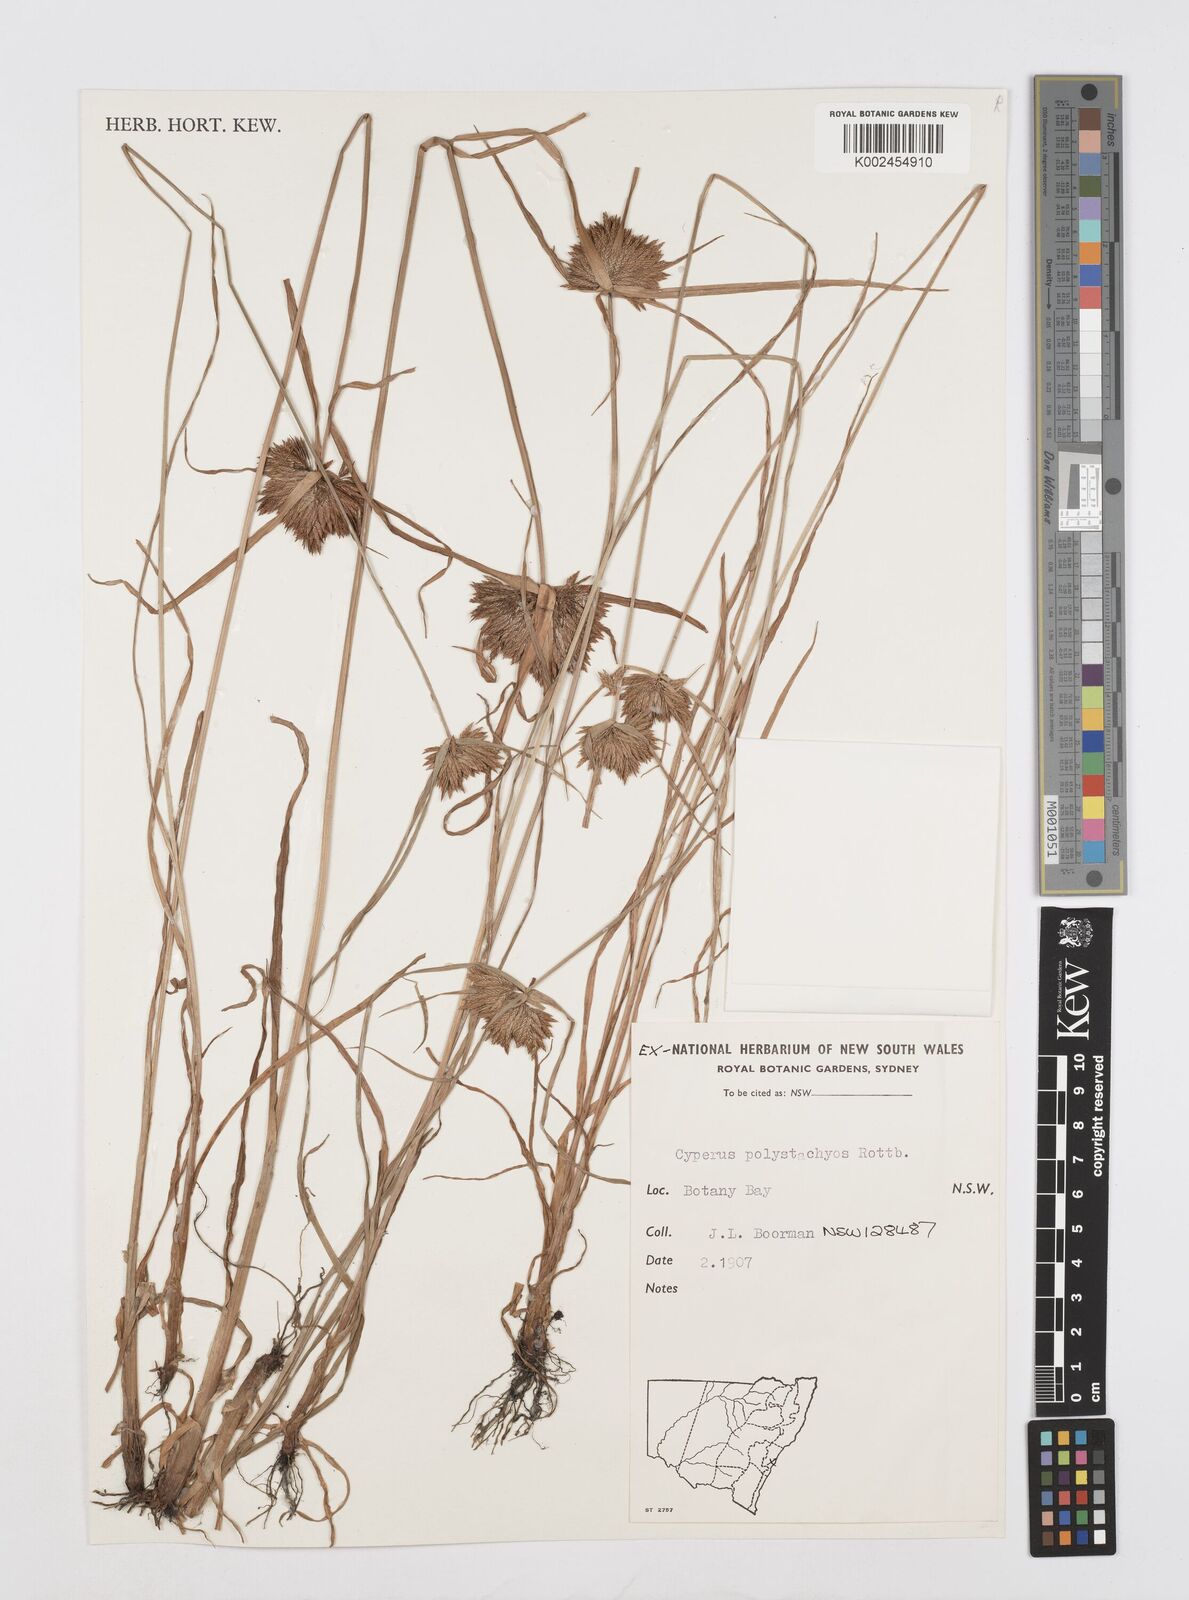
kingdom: Plantae
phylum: Tracheophyta
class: Liliopsida
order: Poales
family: Cyperaceae
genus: Cyperus
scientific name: Cyperus polystachyos
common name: Bunchy flat sedge
